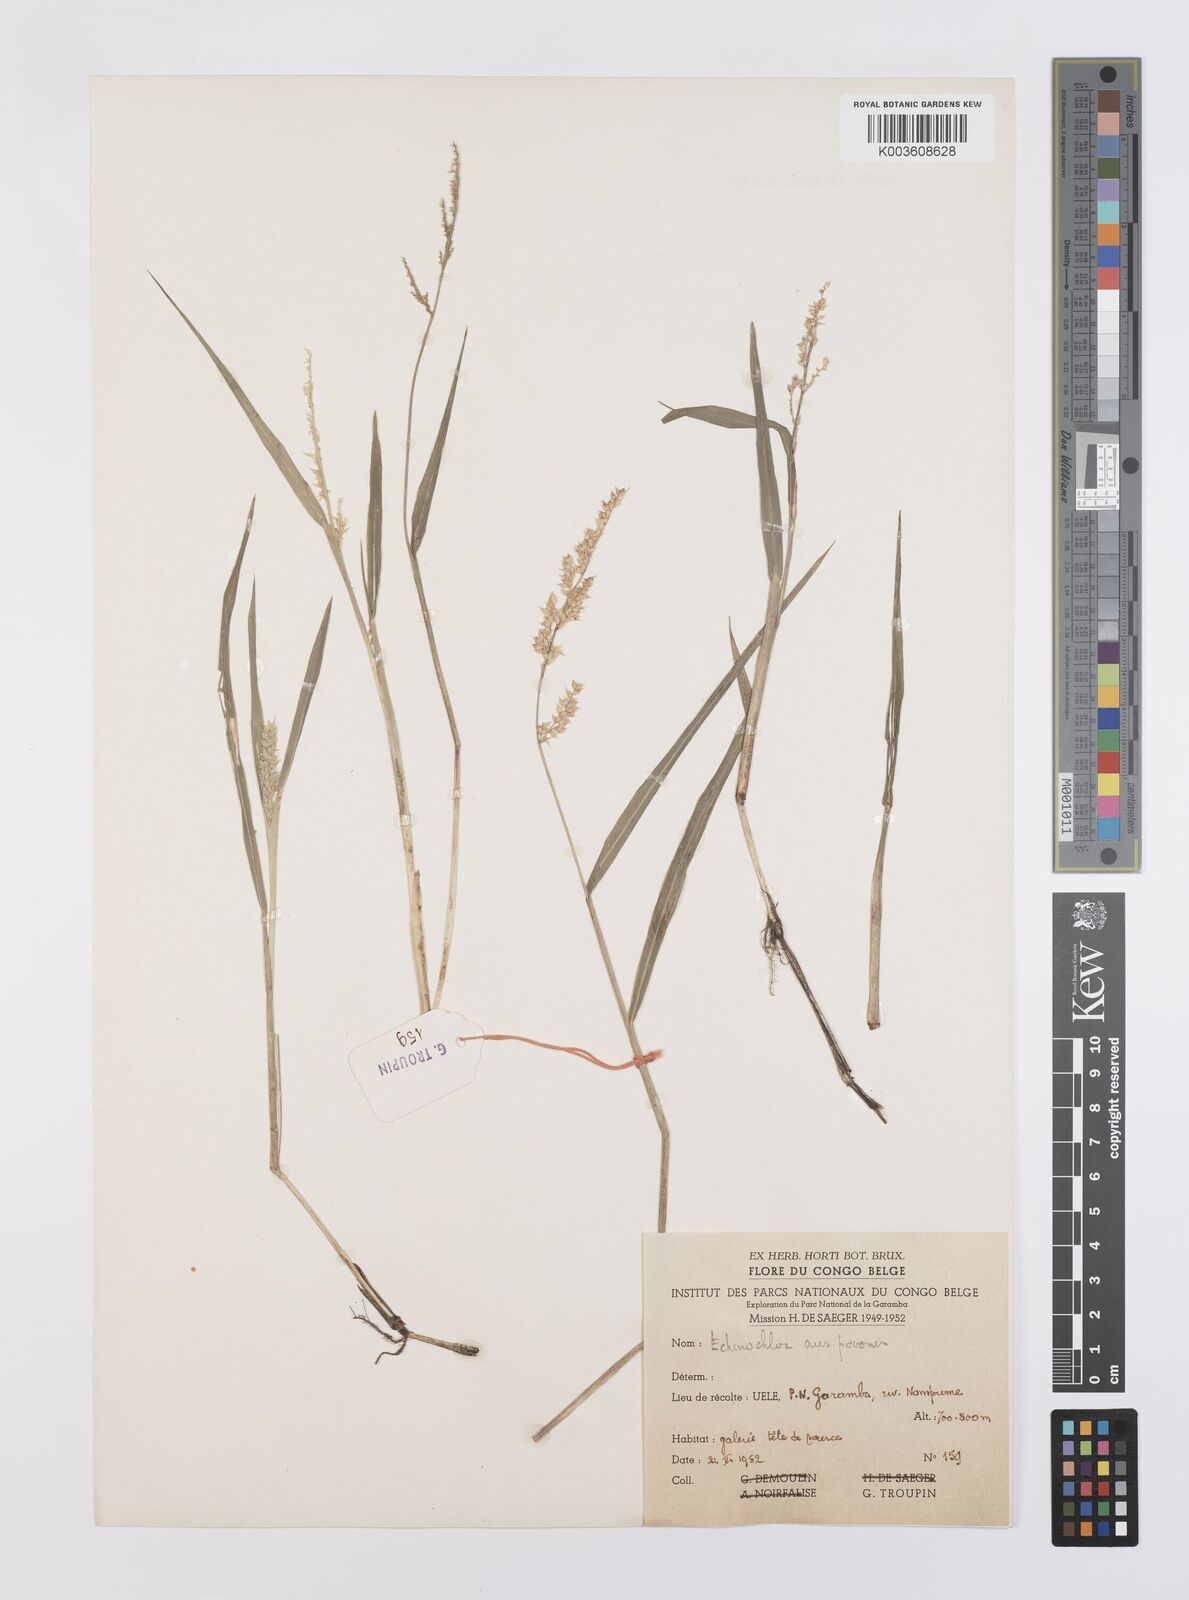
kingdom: Plantae
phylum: Tracheophyta
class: Liliopsida
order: Poales
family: Poaceae
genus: Echinochloa
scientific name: Echinochloa crus-pavonis
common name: Gulf cockspur grass
